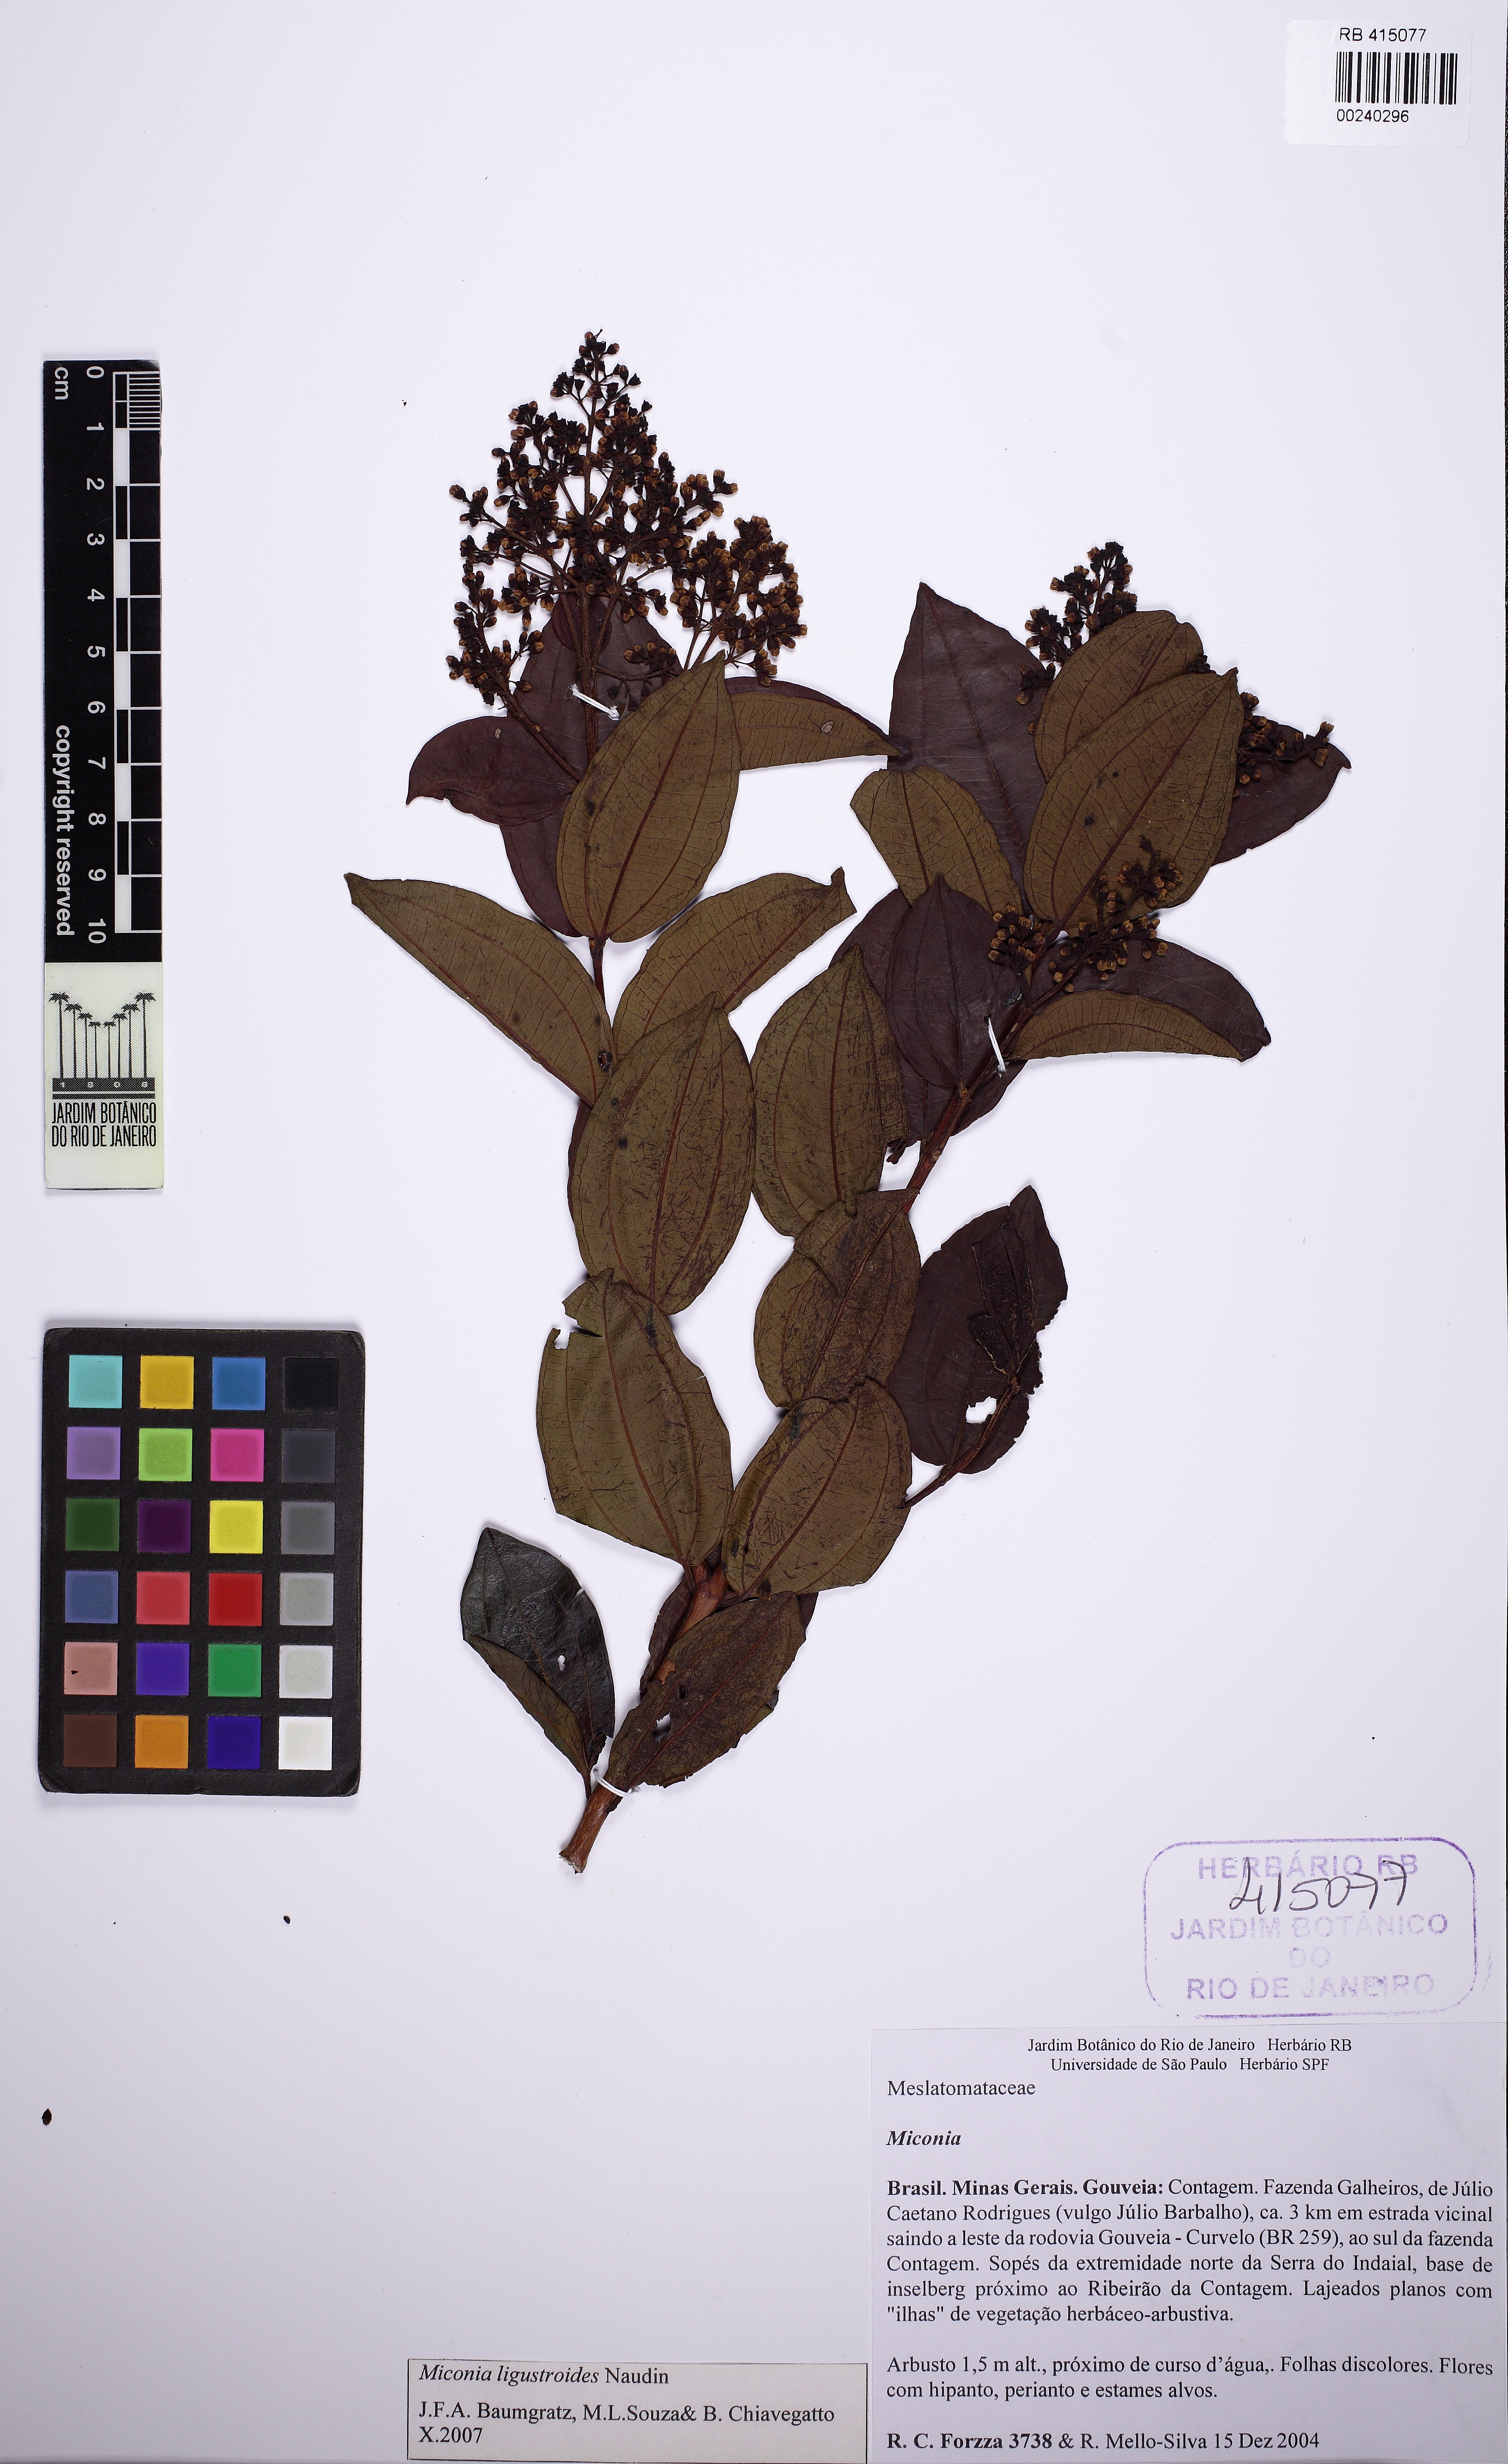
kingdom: Plantae
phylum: Tracheophyta
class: Magnoliopsida
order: Myrtales
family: Melastomataceae
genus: Miconia
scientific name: Miconia ligustroides
